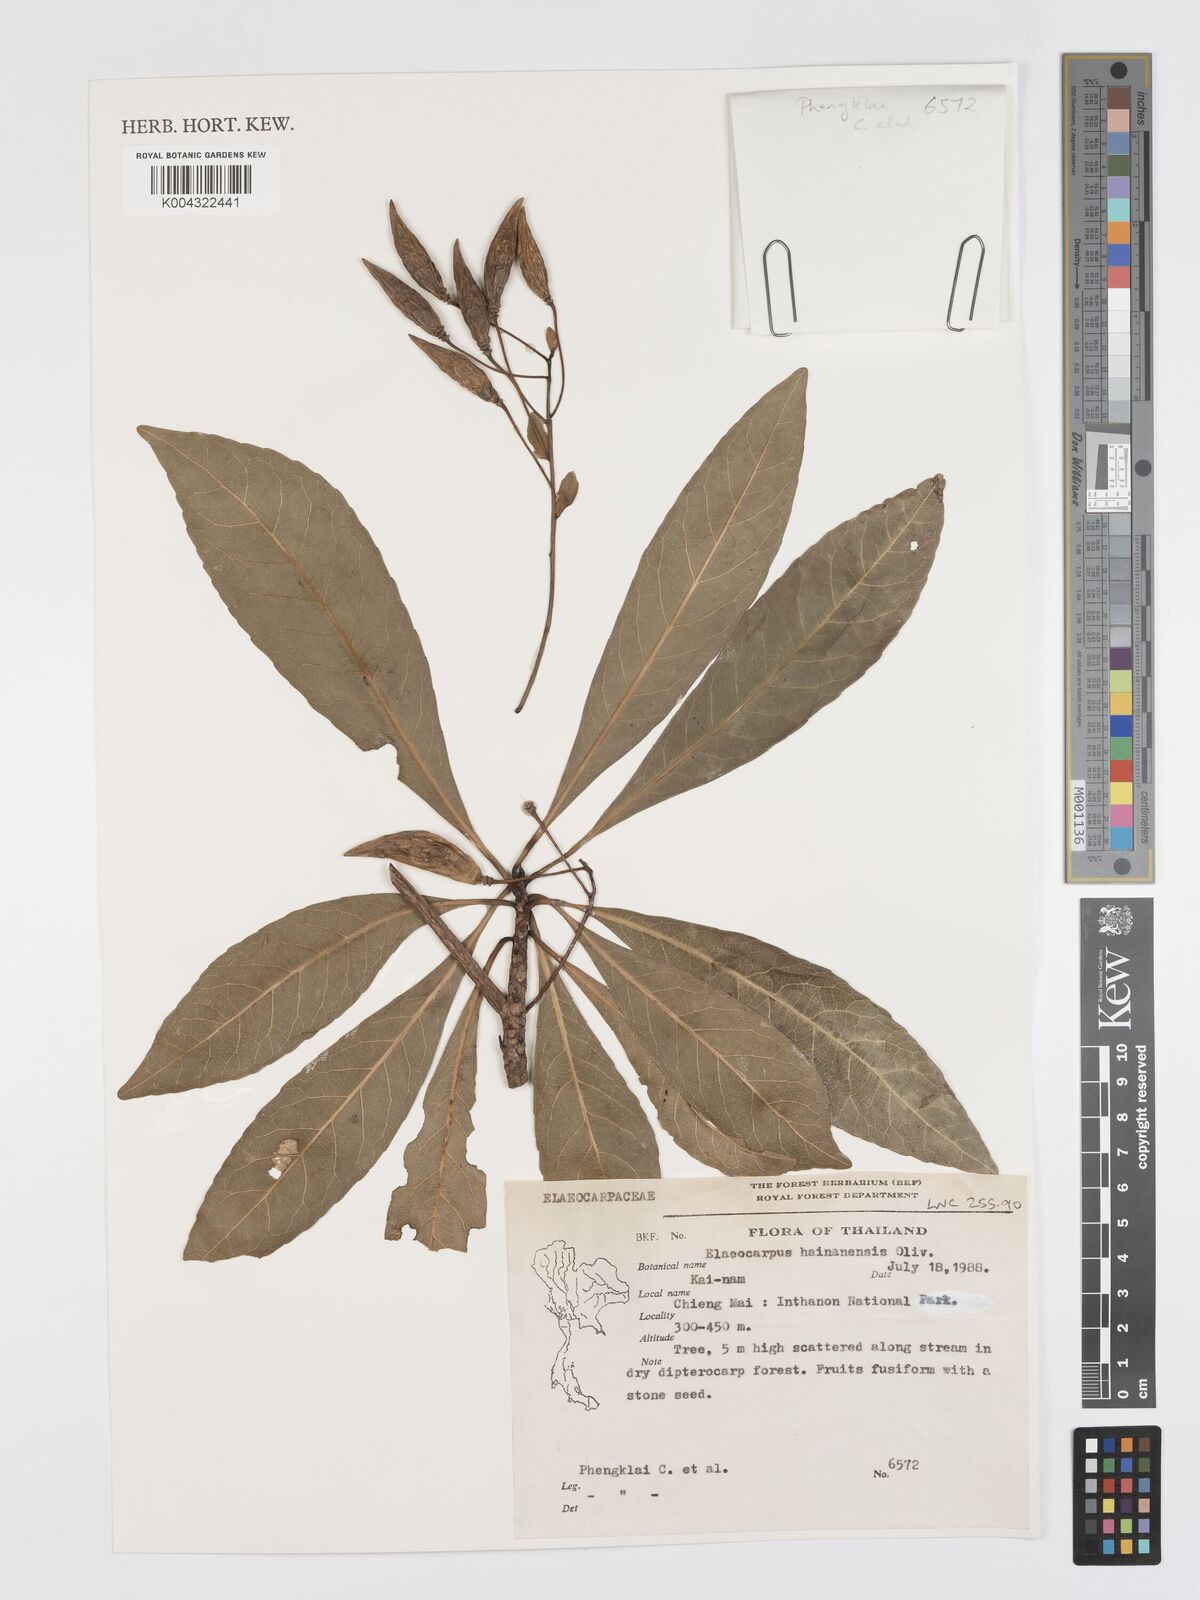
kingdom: Plantae
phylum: Tracheophyta
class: Magnoliopsida
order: Oxalidales
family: Elaeocarpaceae
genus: Elaeocarpus
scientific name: Elaeocarpus hainanensis
